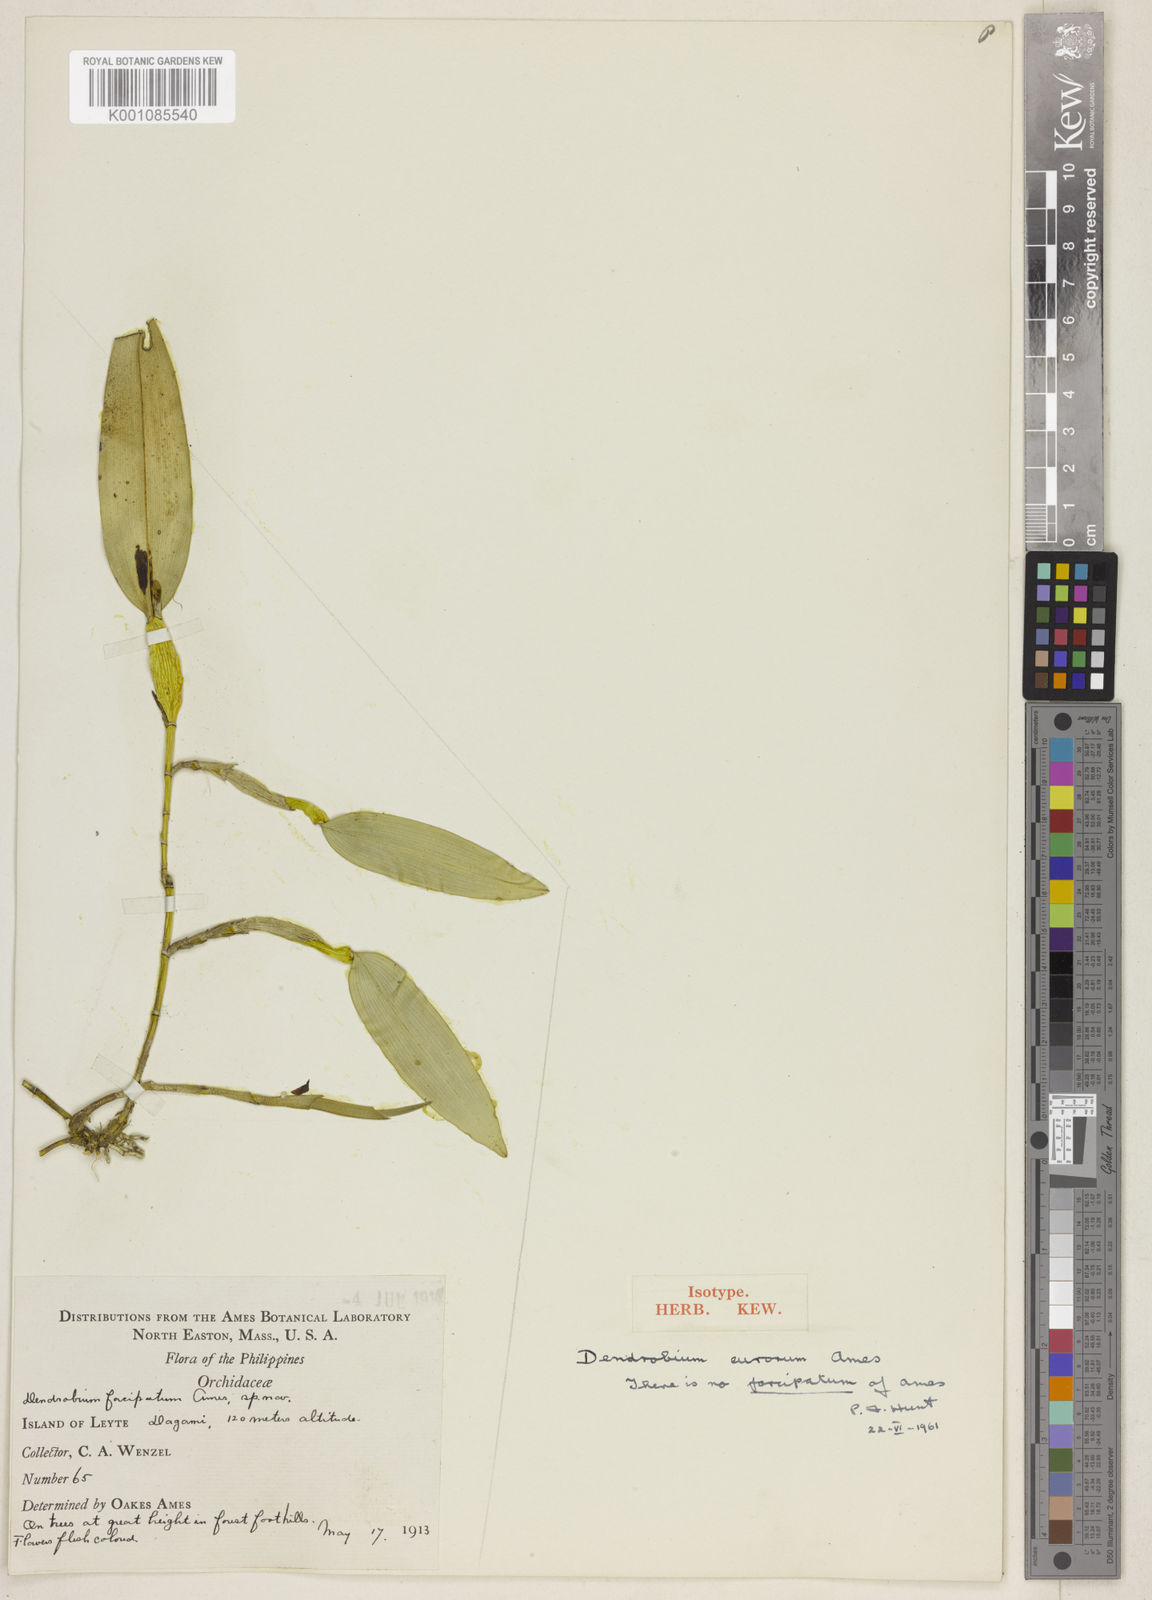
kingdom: Plantae
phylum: Tracheophyta
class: Liliopsida
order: Asparagales
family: Orchidaceae
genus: Dendrobium
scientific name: Dendrobium eurorum
